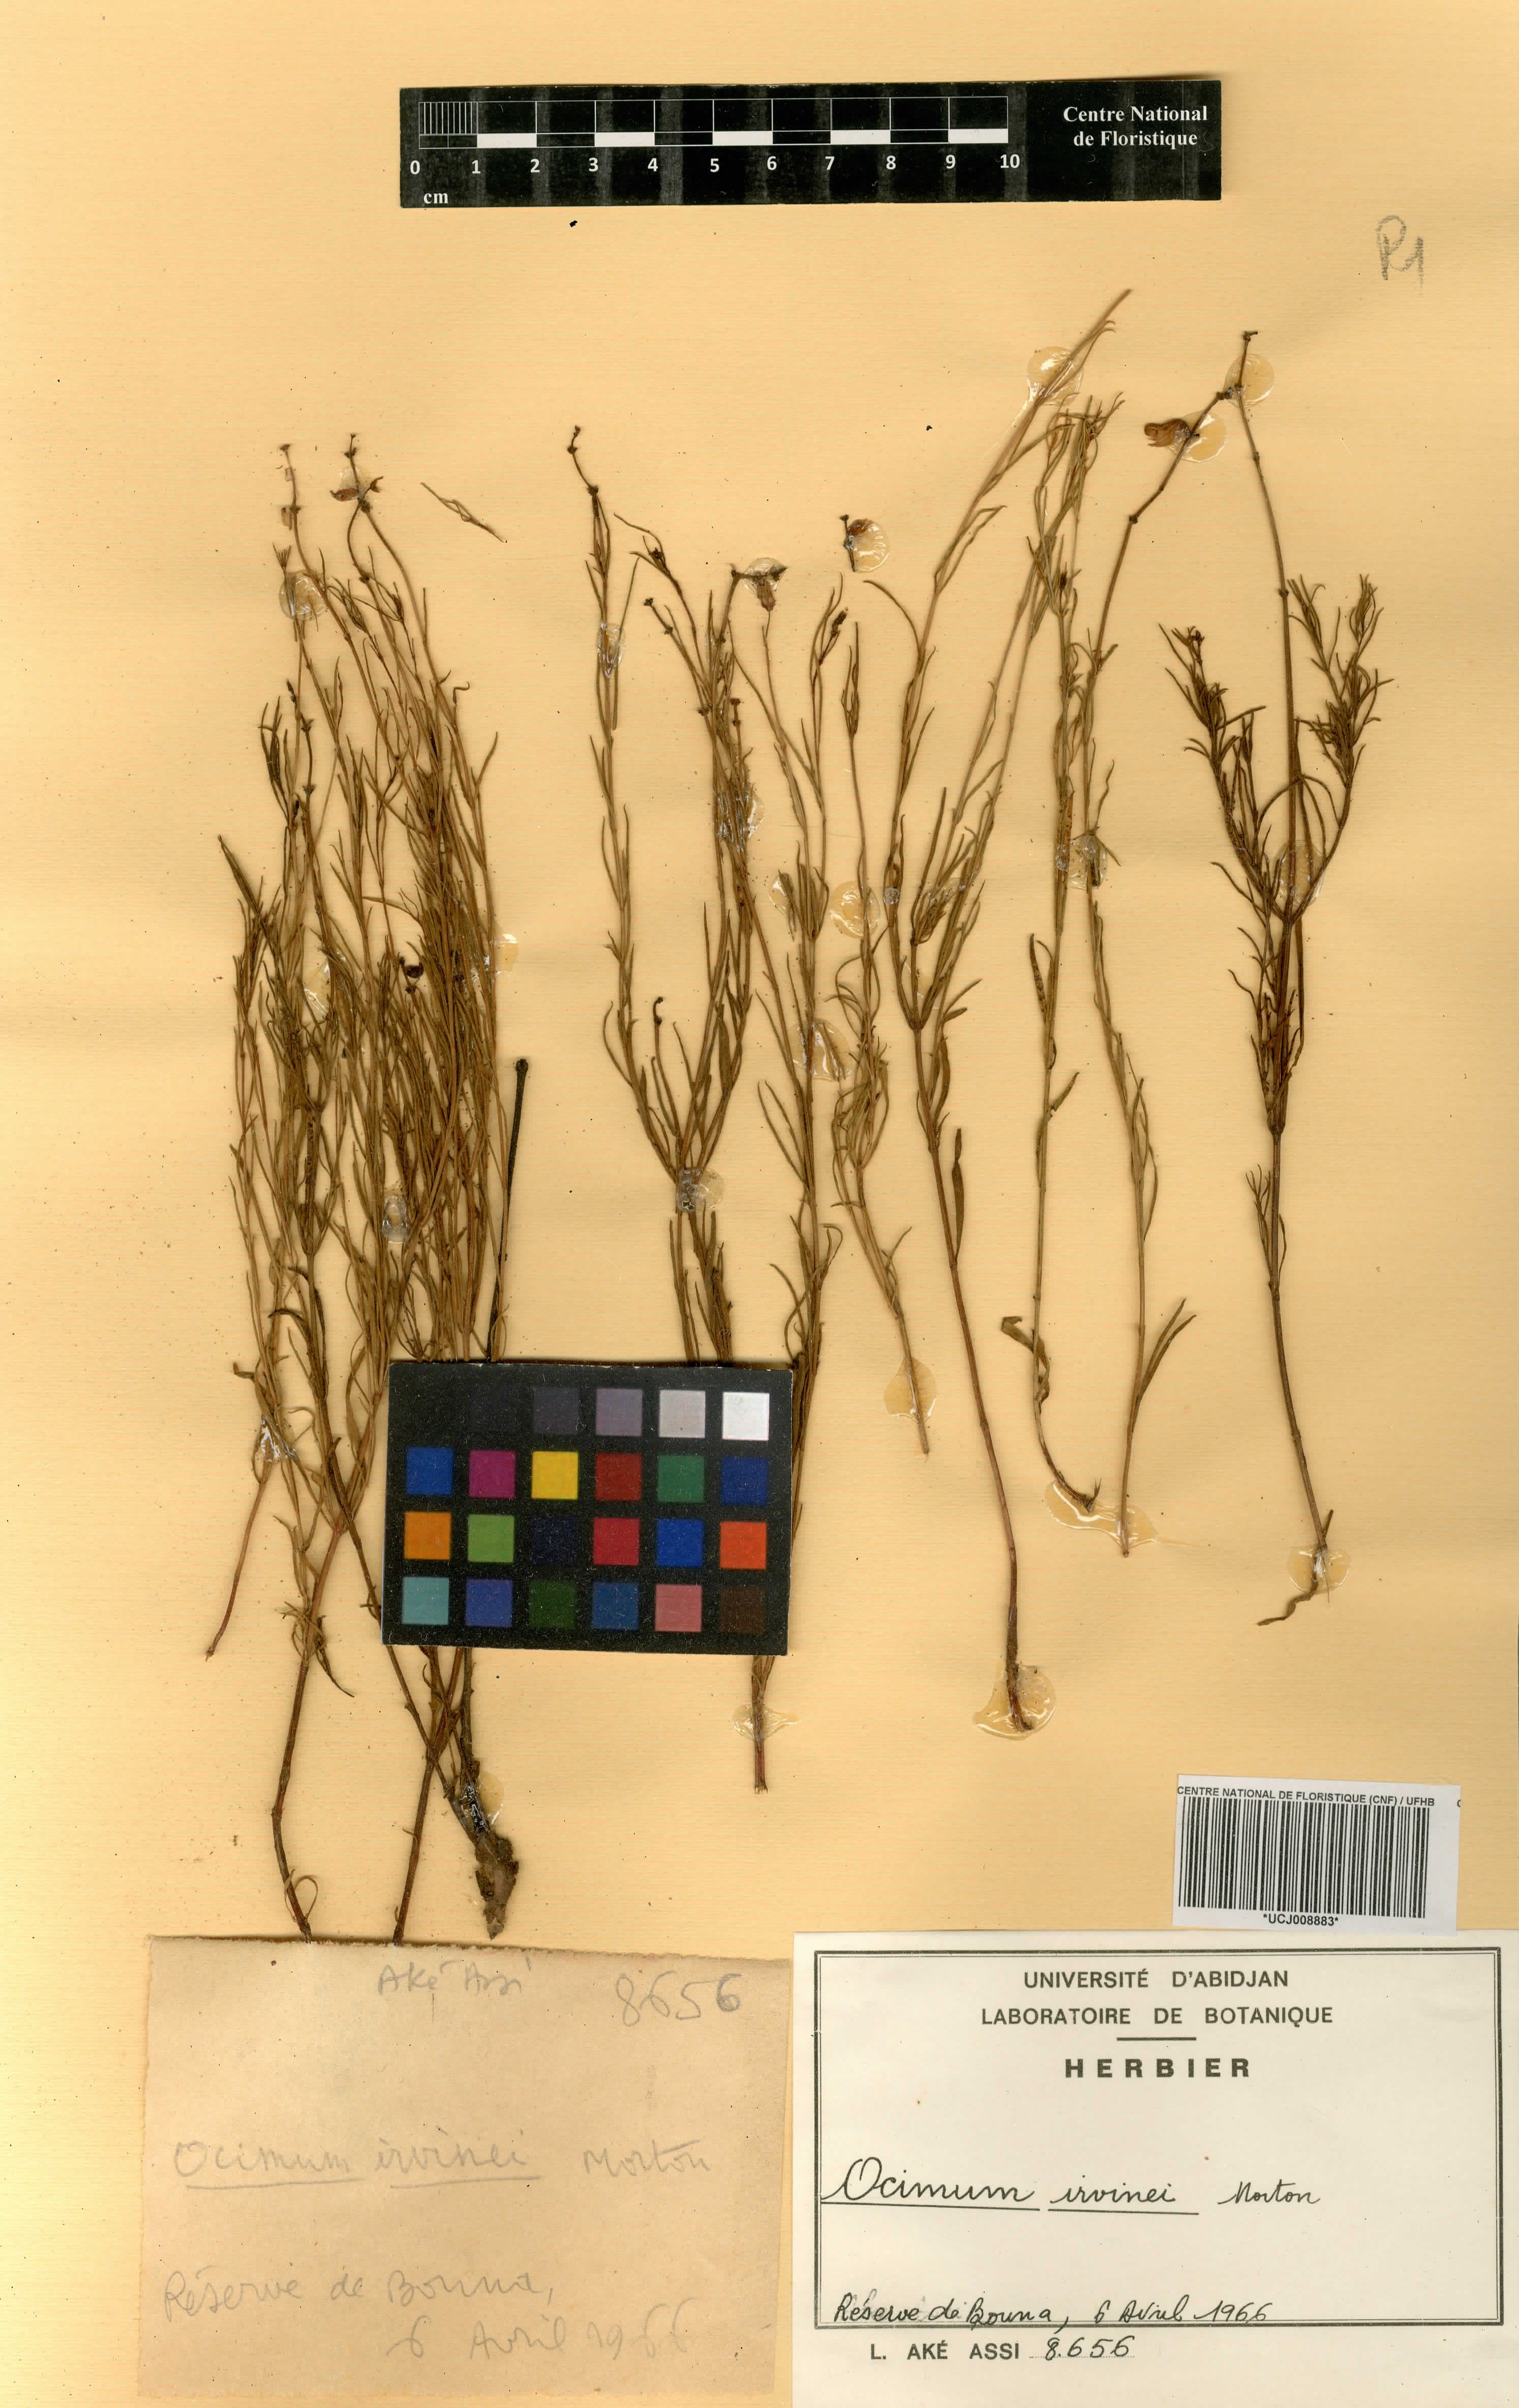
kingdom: Plantae
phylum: Tracheophyta
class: Magnoliopsida
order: Lamiales
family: Lamiaceae
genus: Ocimum
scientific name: Ocimum irvinei
